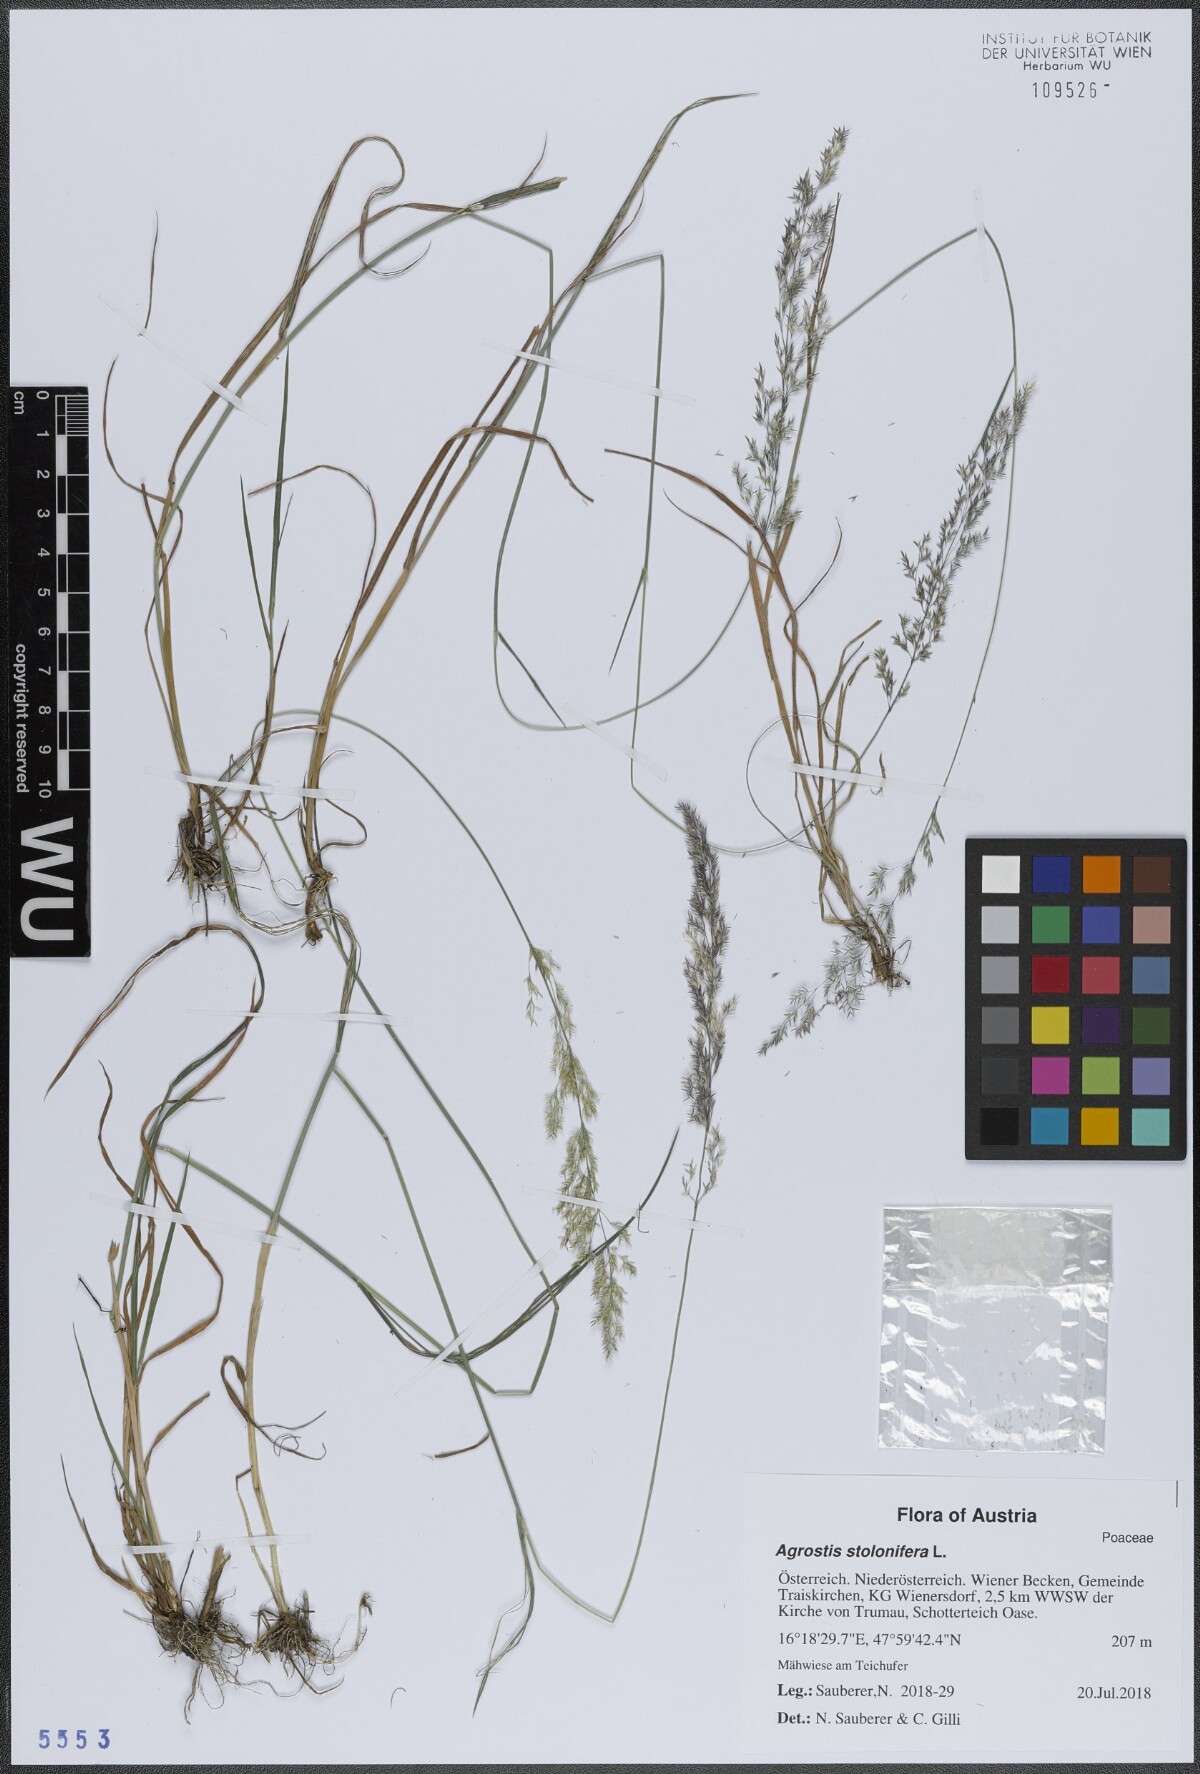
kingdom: Plantae
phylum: Tracheophyta
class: Liliopsida
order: Poales
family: Poaceae
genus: Agrostis
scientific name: Agrostis stolonifera
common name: Creeping bentgrass
